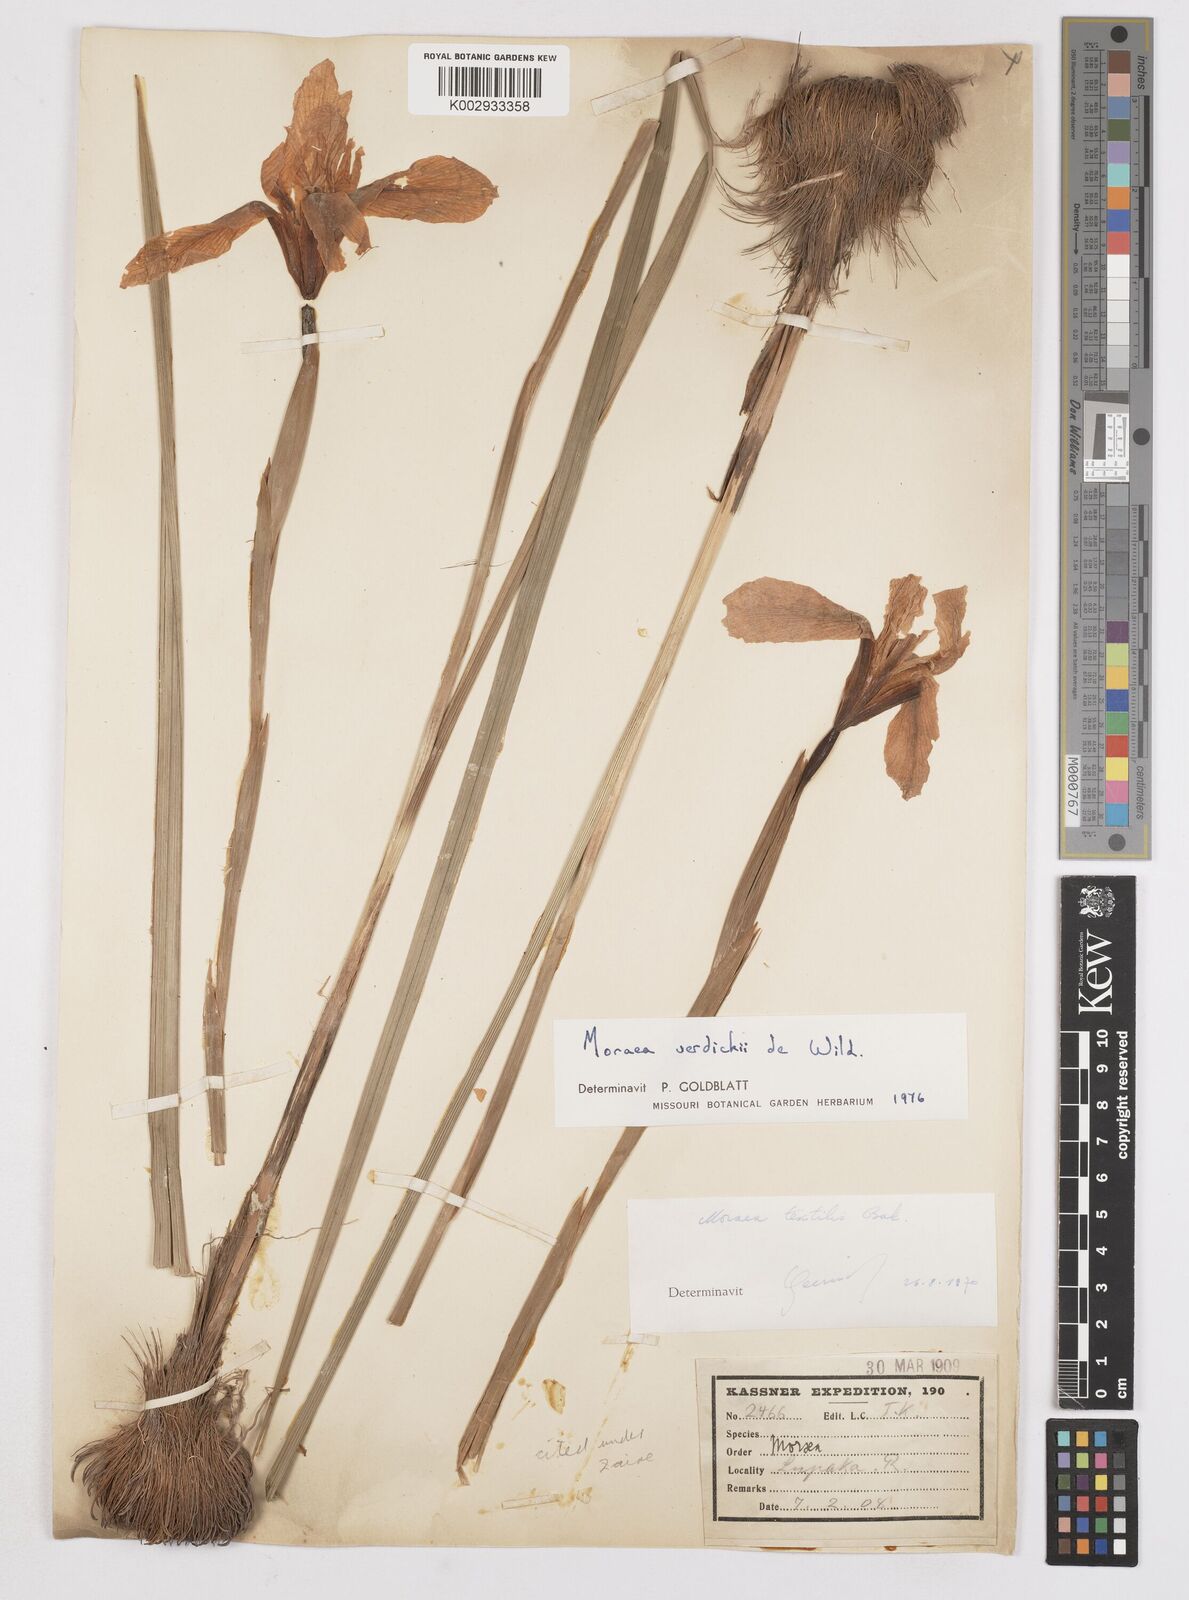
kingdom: Plantae
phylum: Tracheophyta
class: Liliopsida
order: Asparagales
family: Iridaceae
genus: Moraea
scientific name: Moraea verdickii
